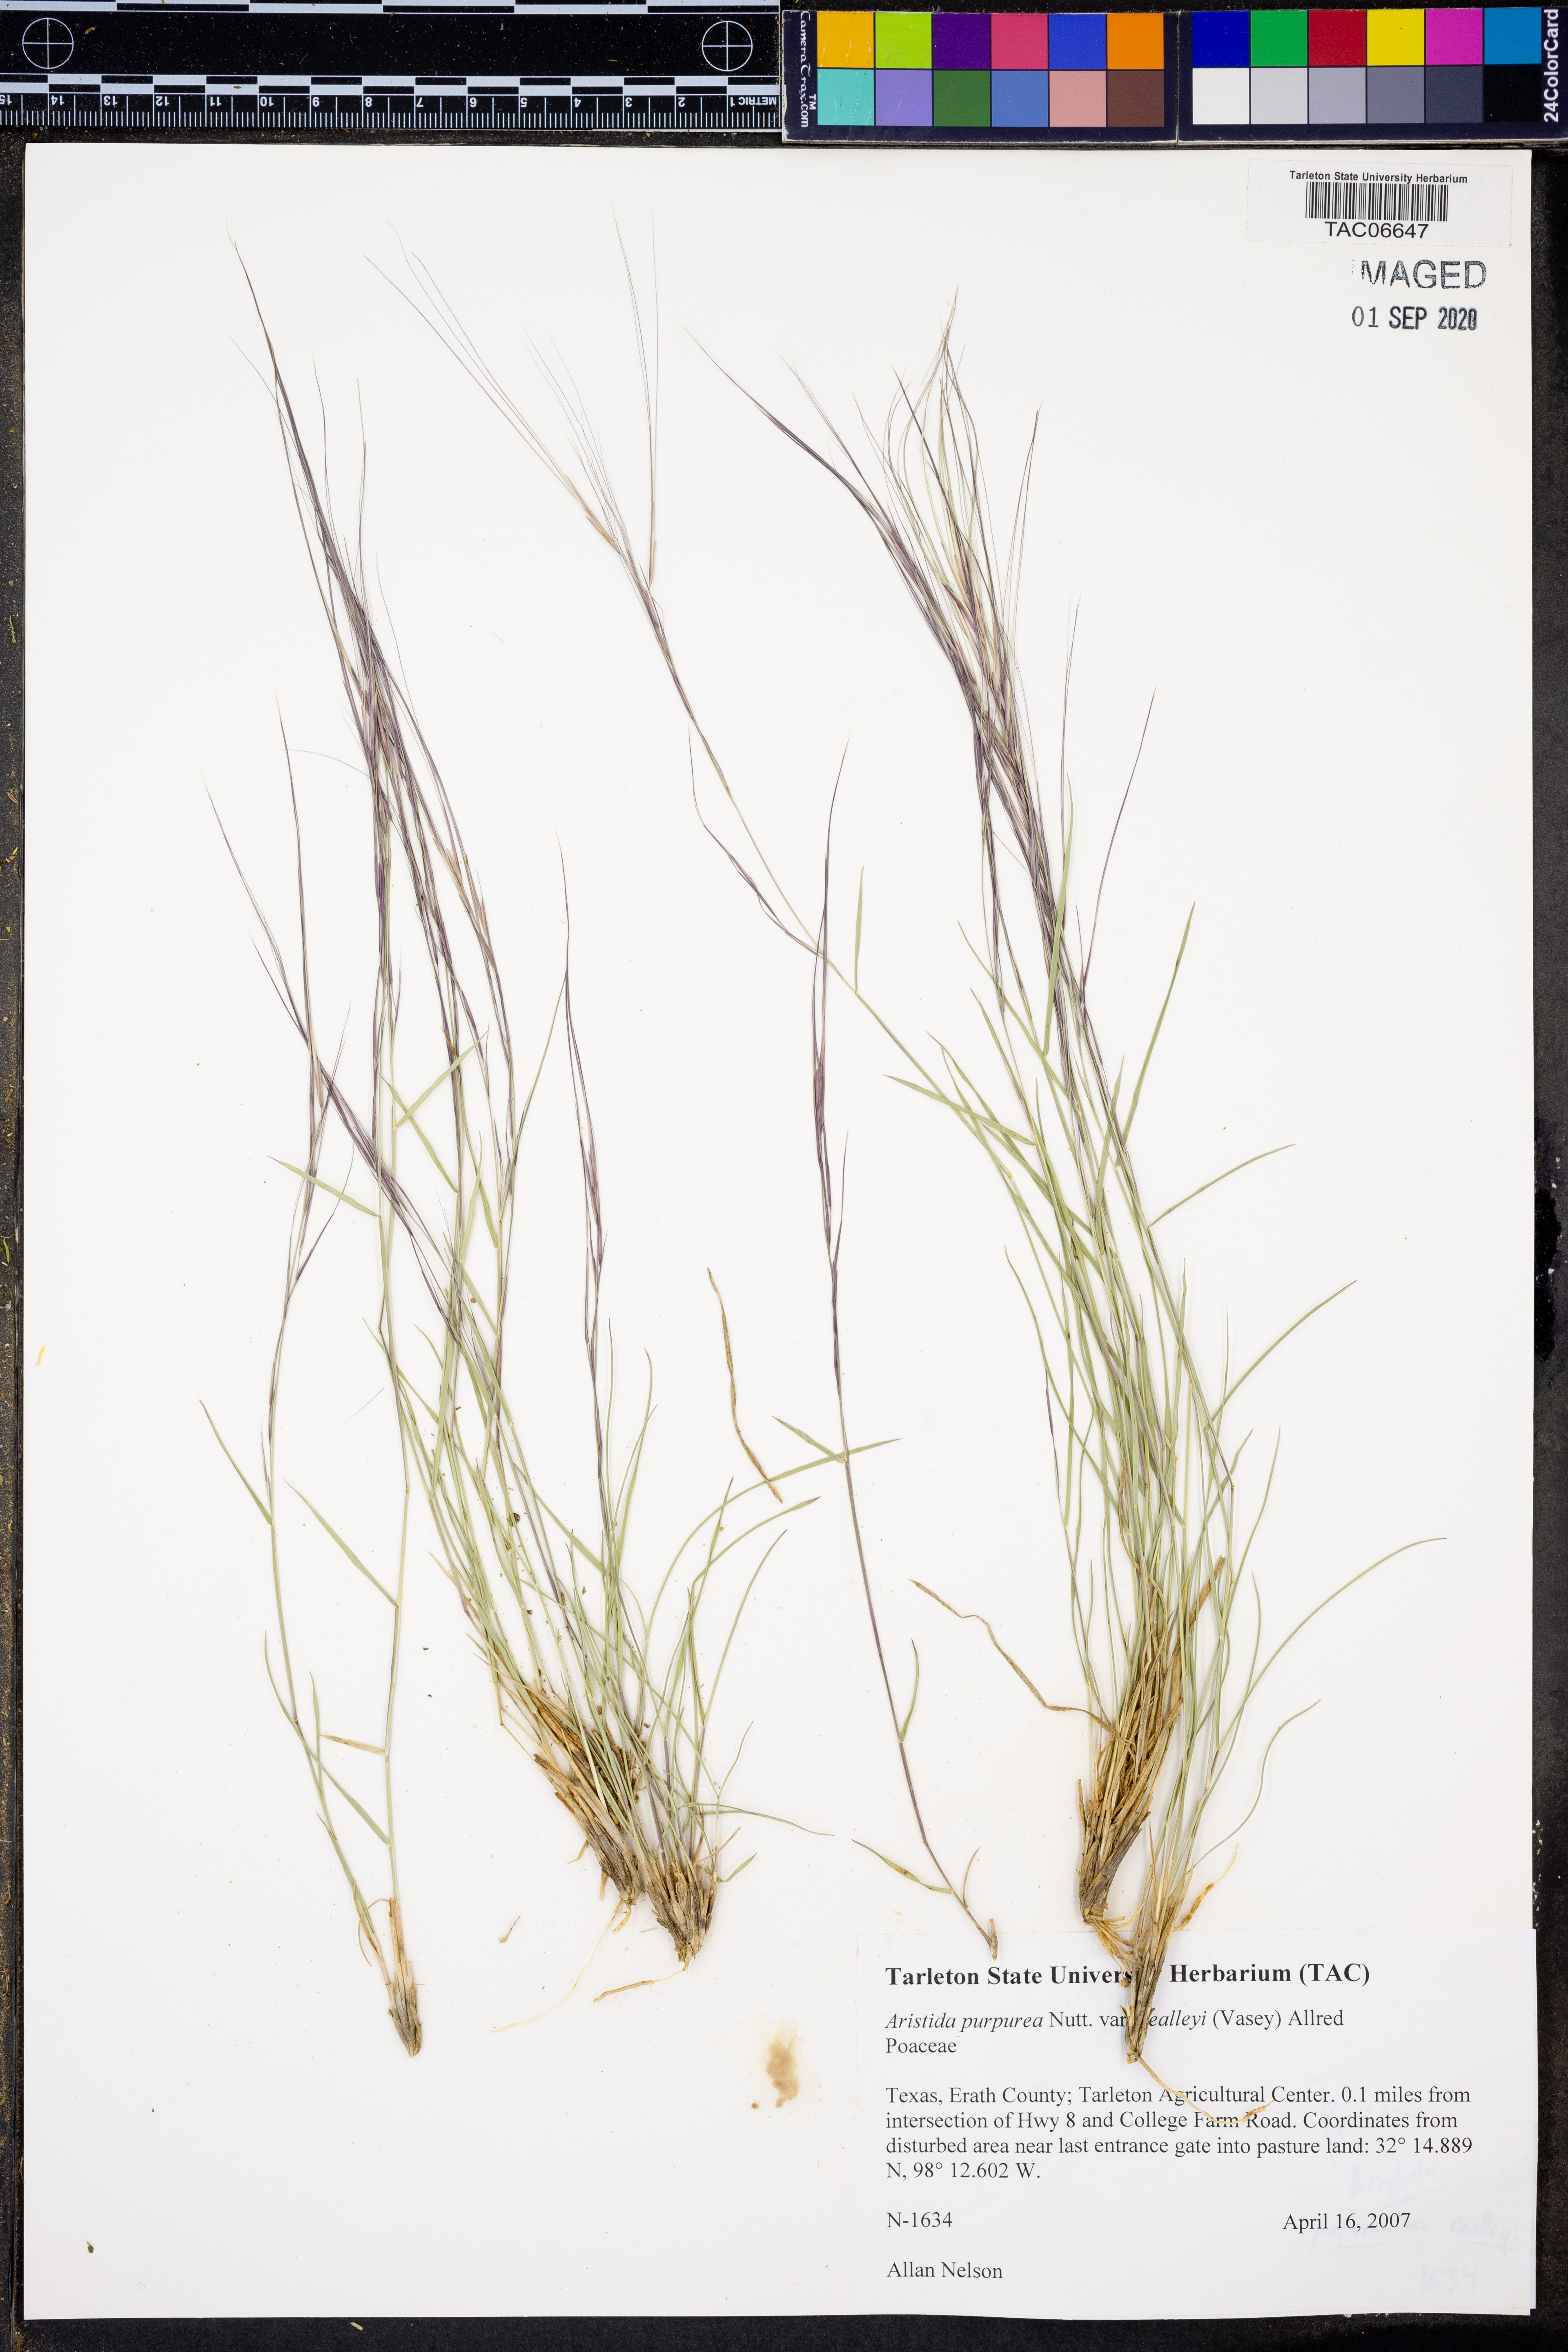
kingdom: Plantae
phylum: Tracheophyta
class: Liliopsida
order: Poales
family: Poaceae
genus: Aristida
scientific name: Aristida glauca
